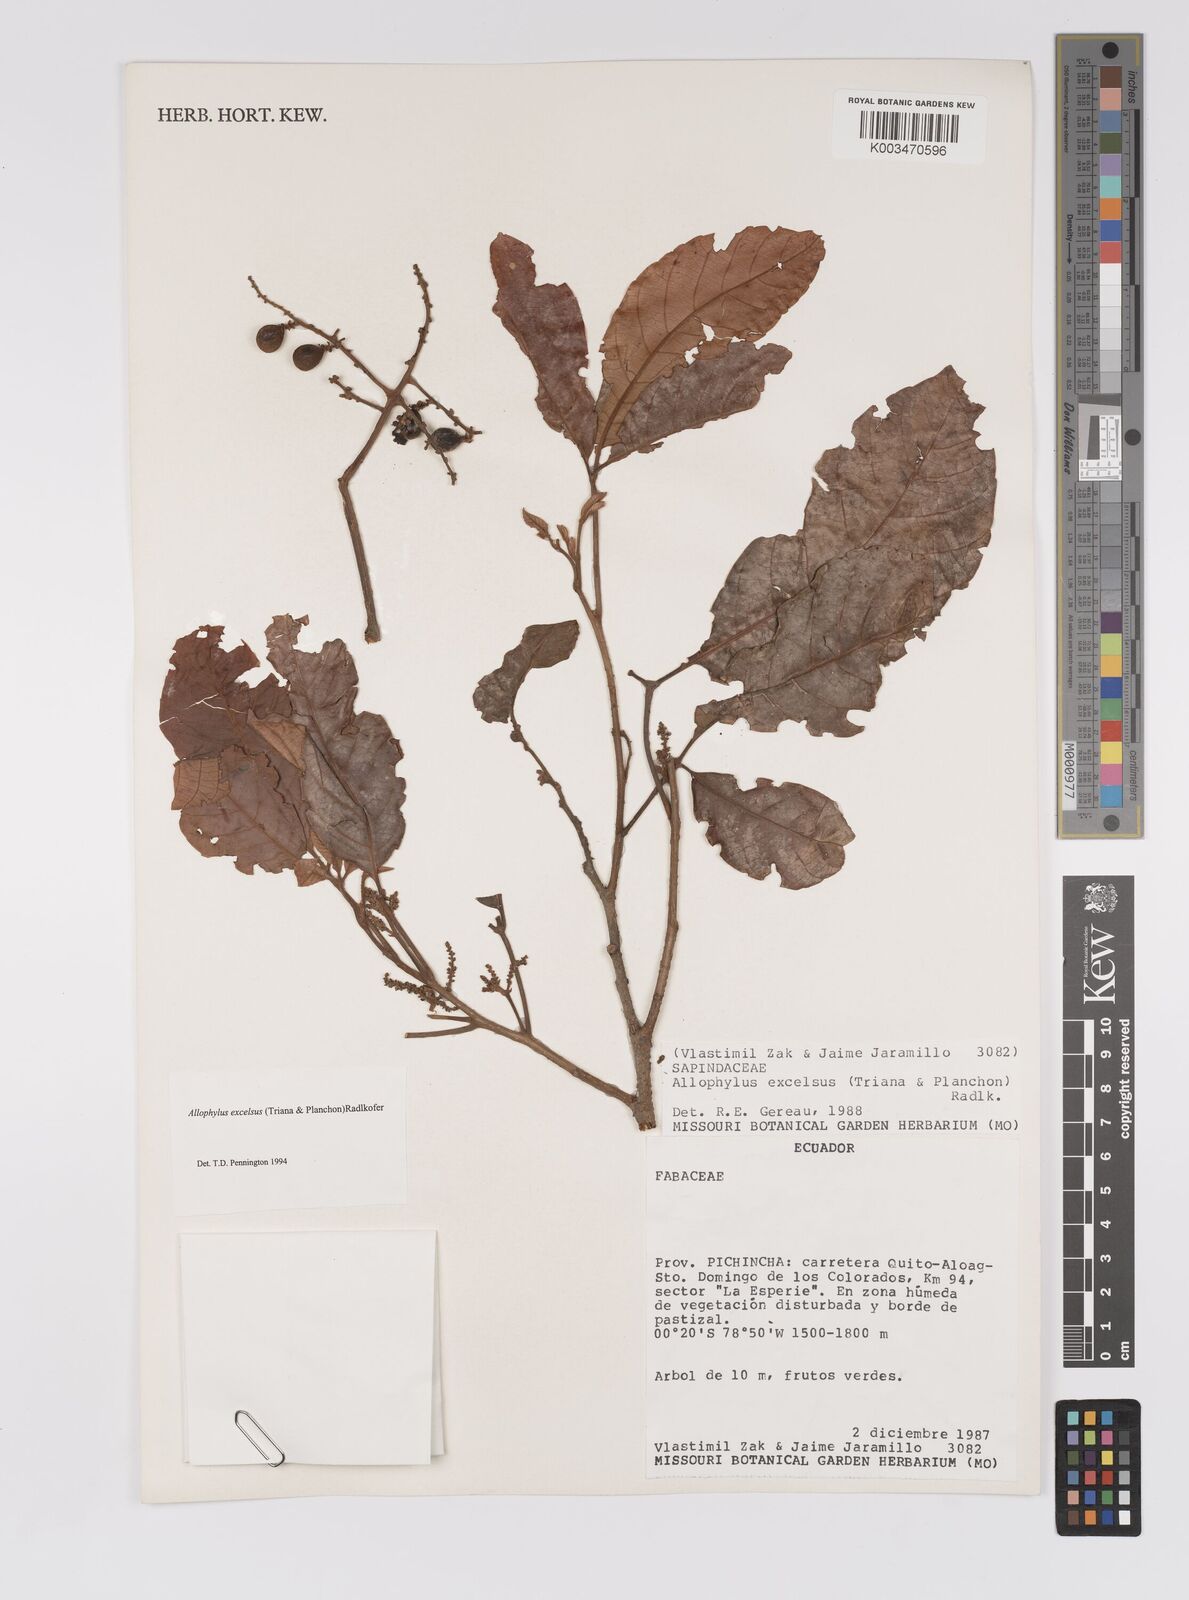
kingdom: Plantae
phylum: Tracheophyta
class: Magnoliopsida
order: Sapindales
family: Sapindaceae
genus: Allophylus
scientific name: Allophylus excelsus
